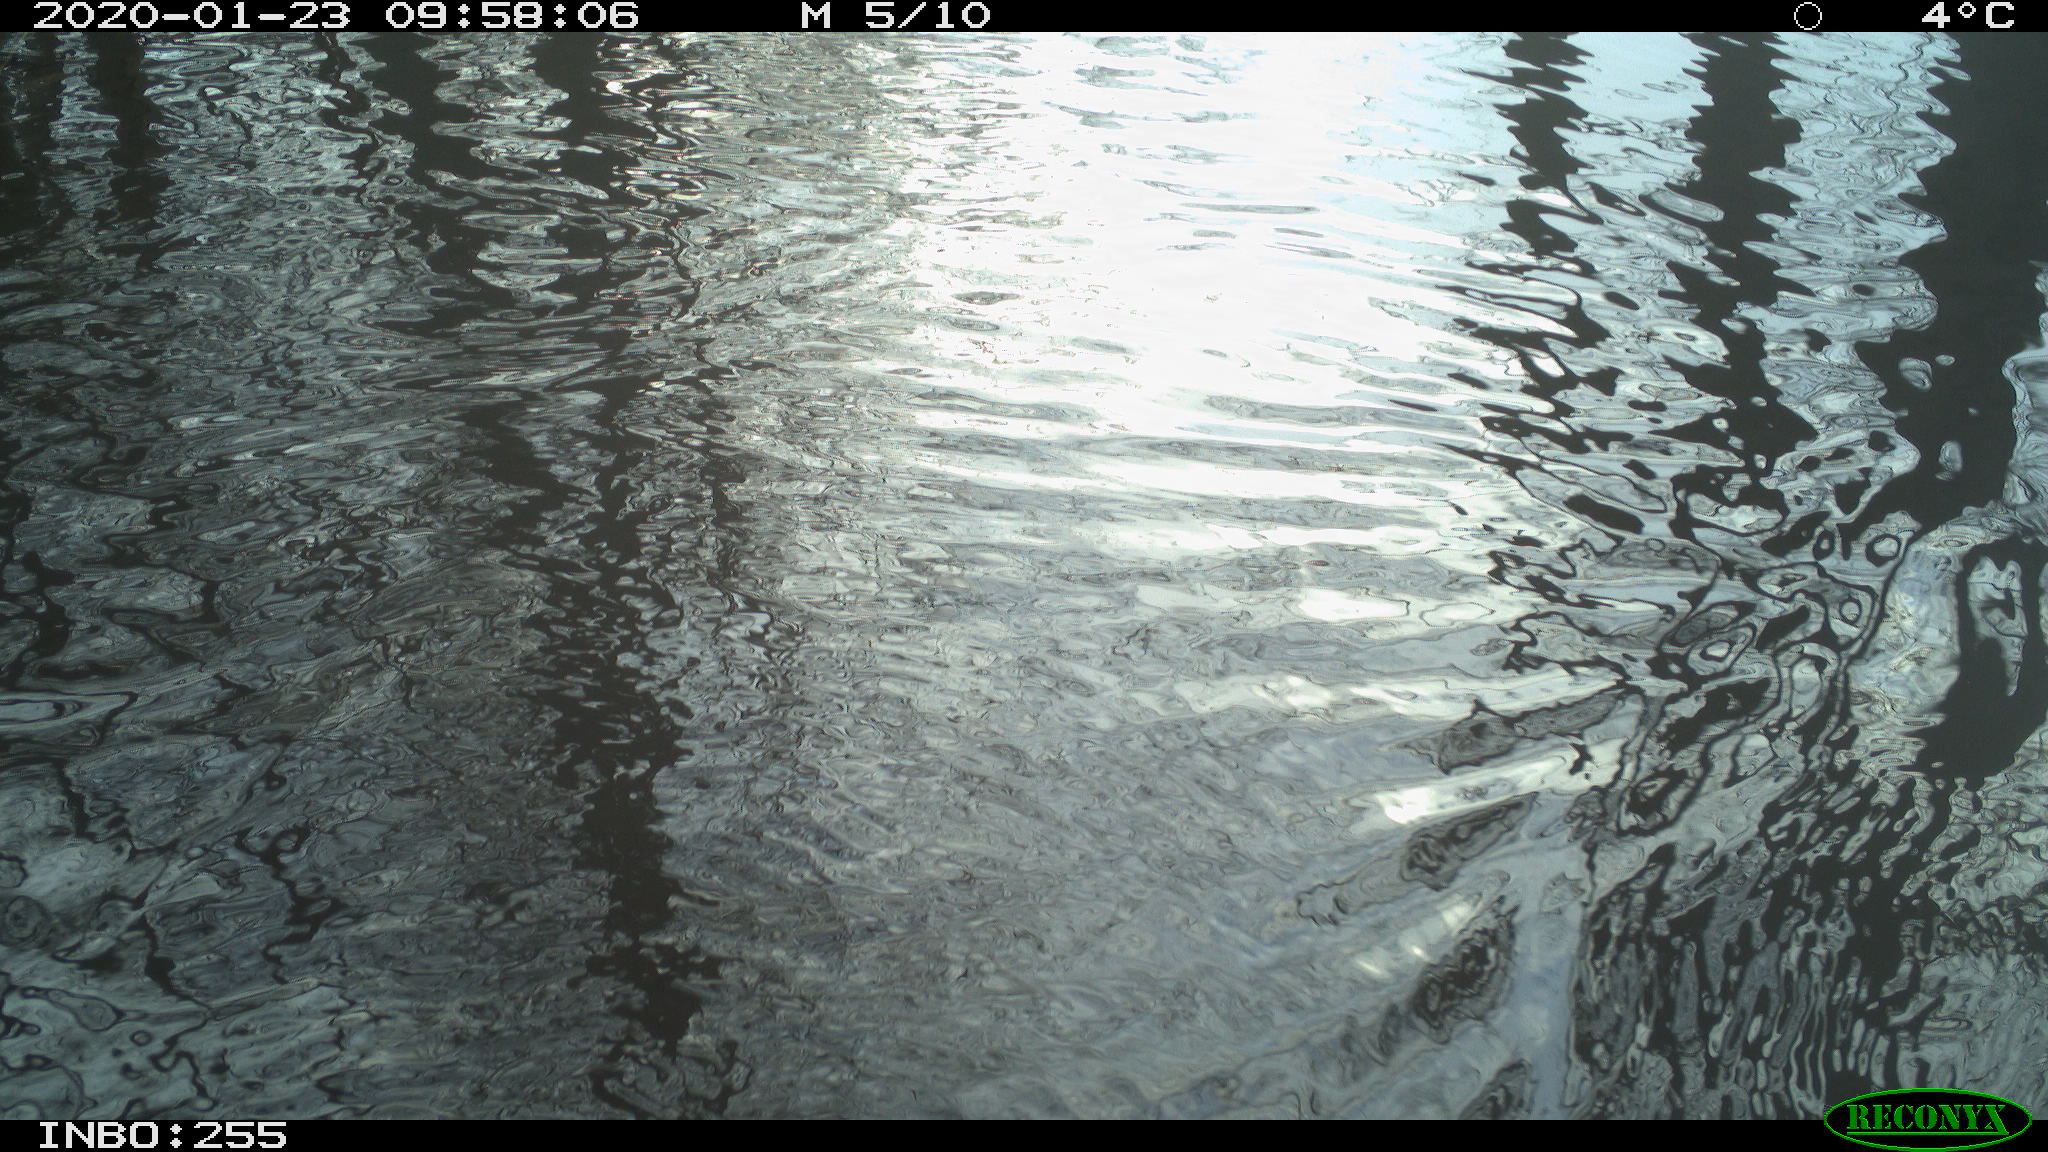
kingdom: Animalia
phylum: Chordata
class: Aves
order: Gruiformes
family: Rallidae
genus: Gallinula
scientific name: Gallinula chloropus
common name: Common moorhen
